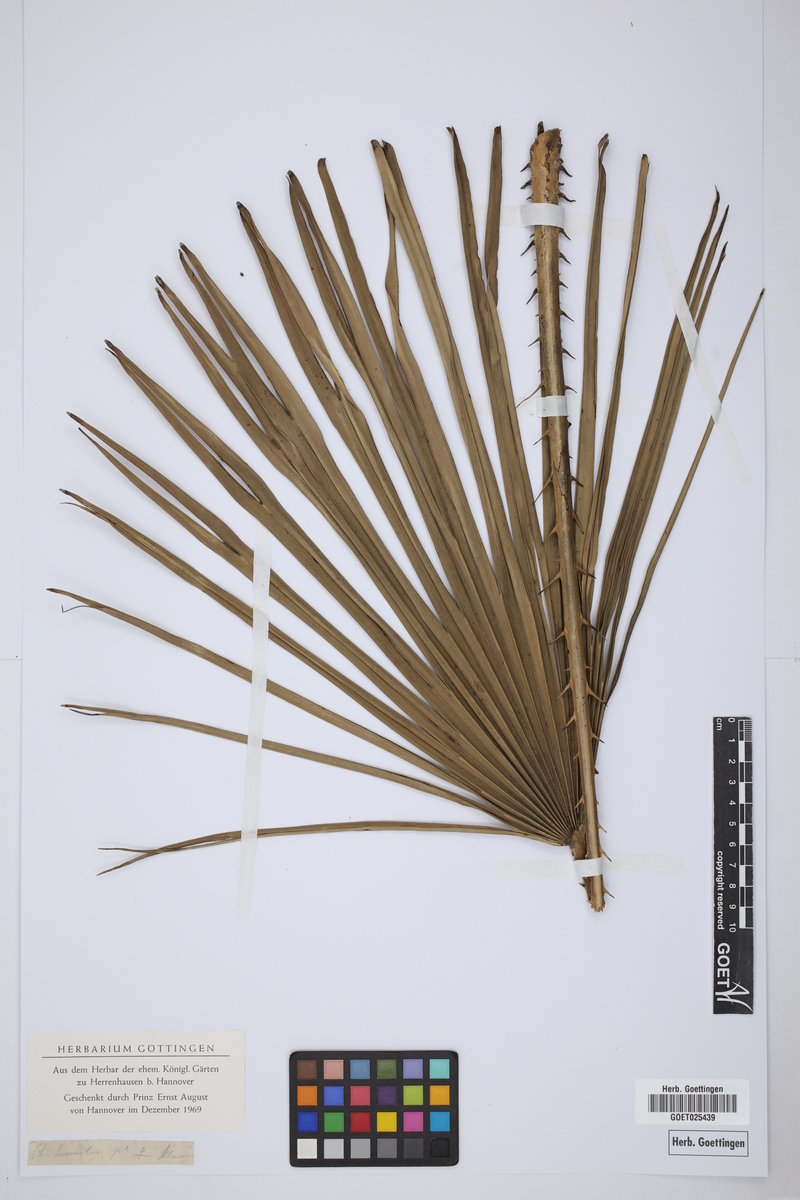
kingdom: Plantae
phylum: Tracheophyta
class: Liliopsida
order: Arecales
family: Arecaceae
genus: Chamaerops
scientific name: Chamaerops humilis
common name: Dwarf fan palm
